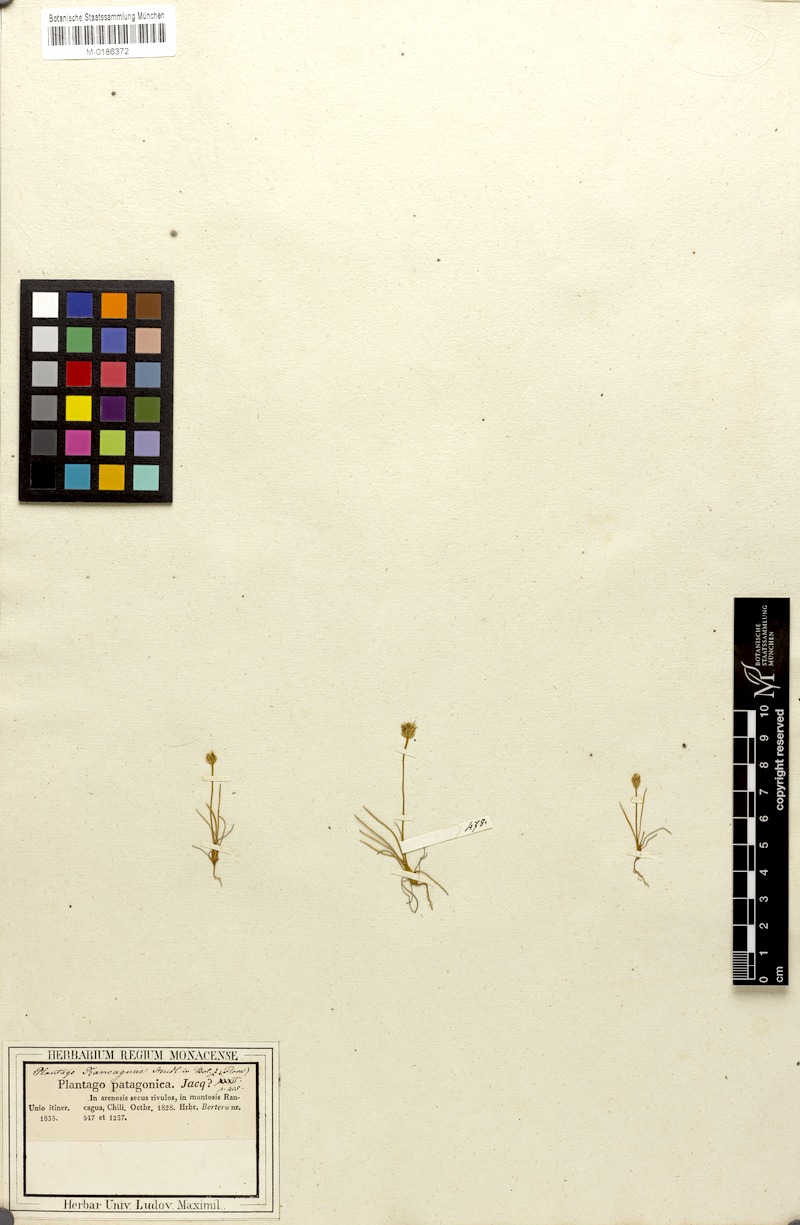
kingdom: Plantae
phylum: Tracheophyta
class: Magnoliopsida
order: Lamiales
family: Plantaginaceae
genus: Plantago
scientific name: Plantago rancaguae
